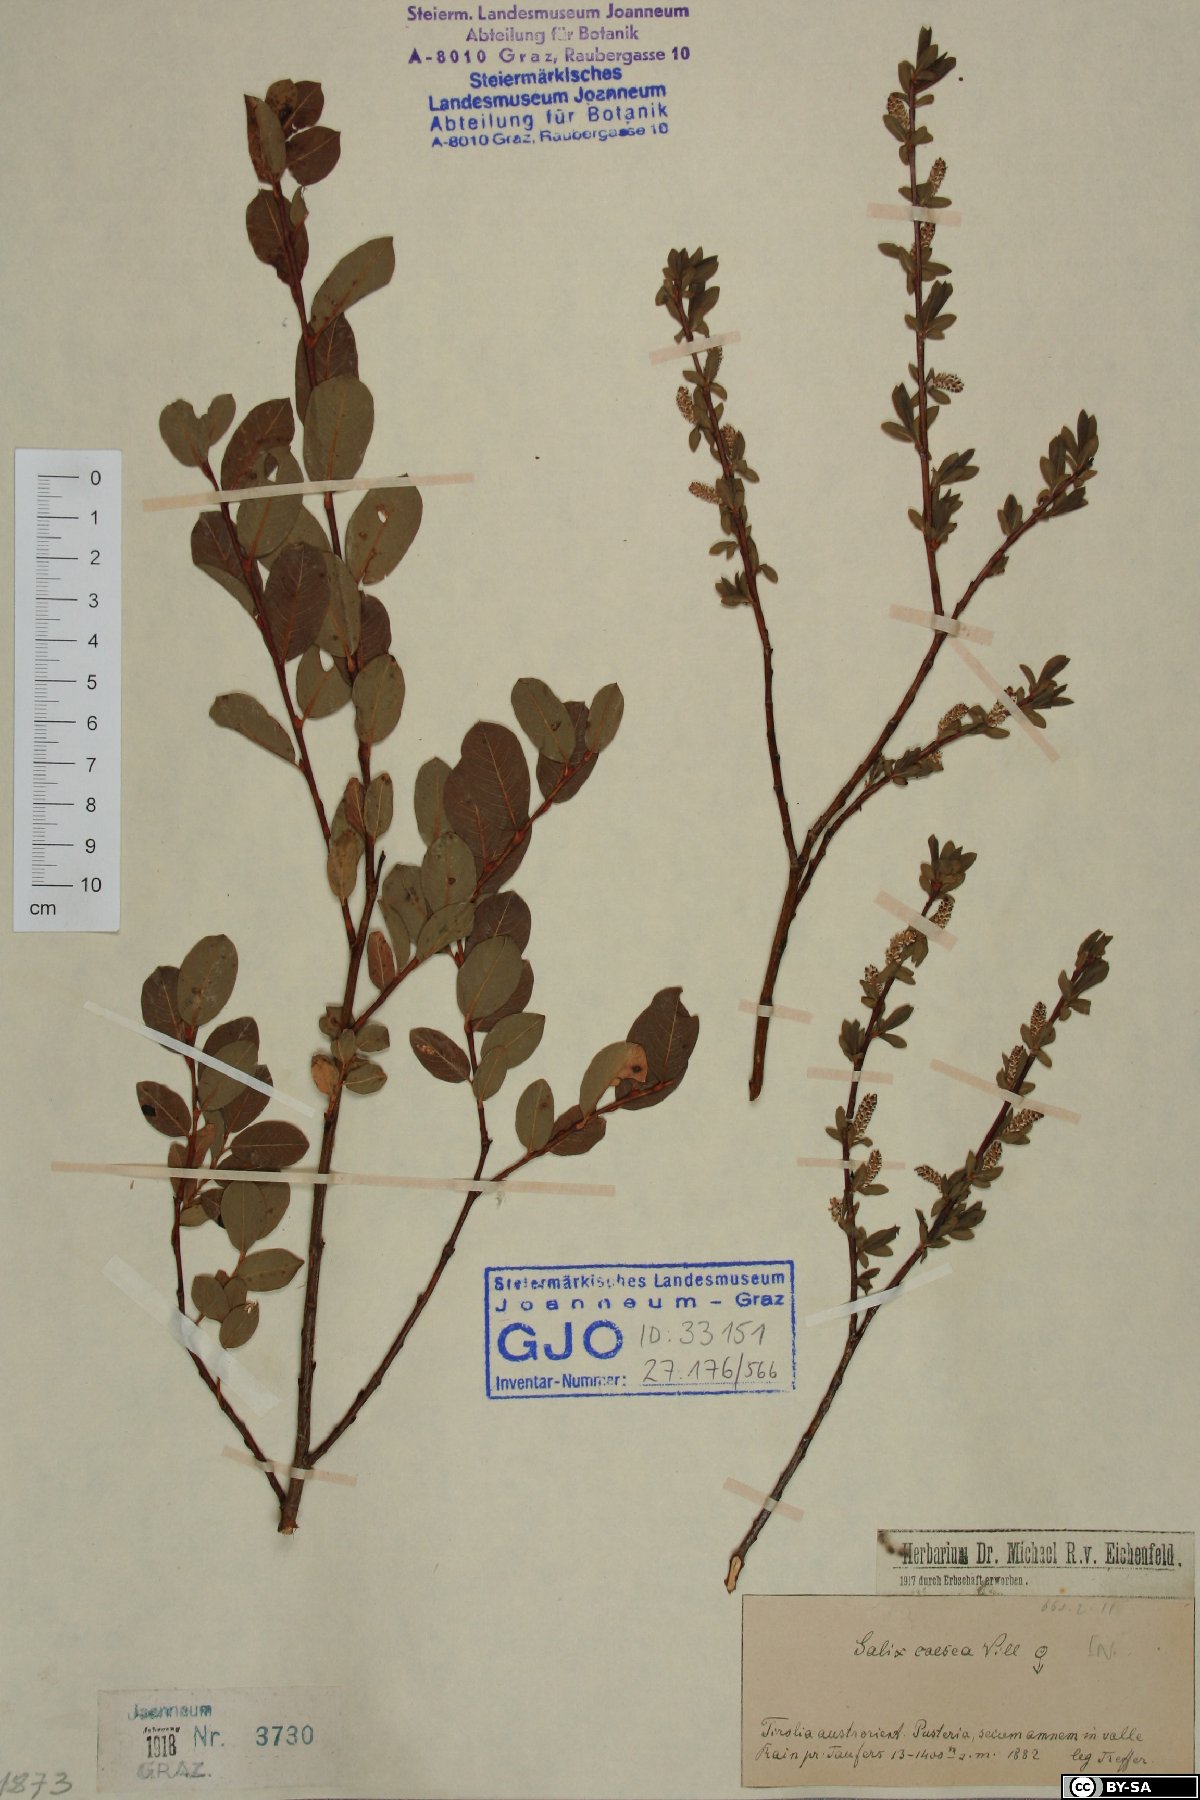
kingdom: Plantae
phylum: Tracheophyta
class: Magnoliopsida
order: Malpighiales
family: Salicaceae
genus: Salix
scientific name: Salix caesia
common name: Blue willow
